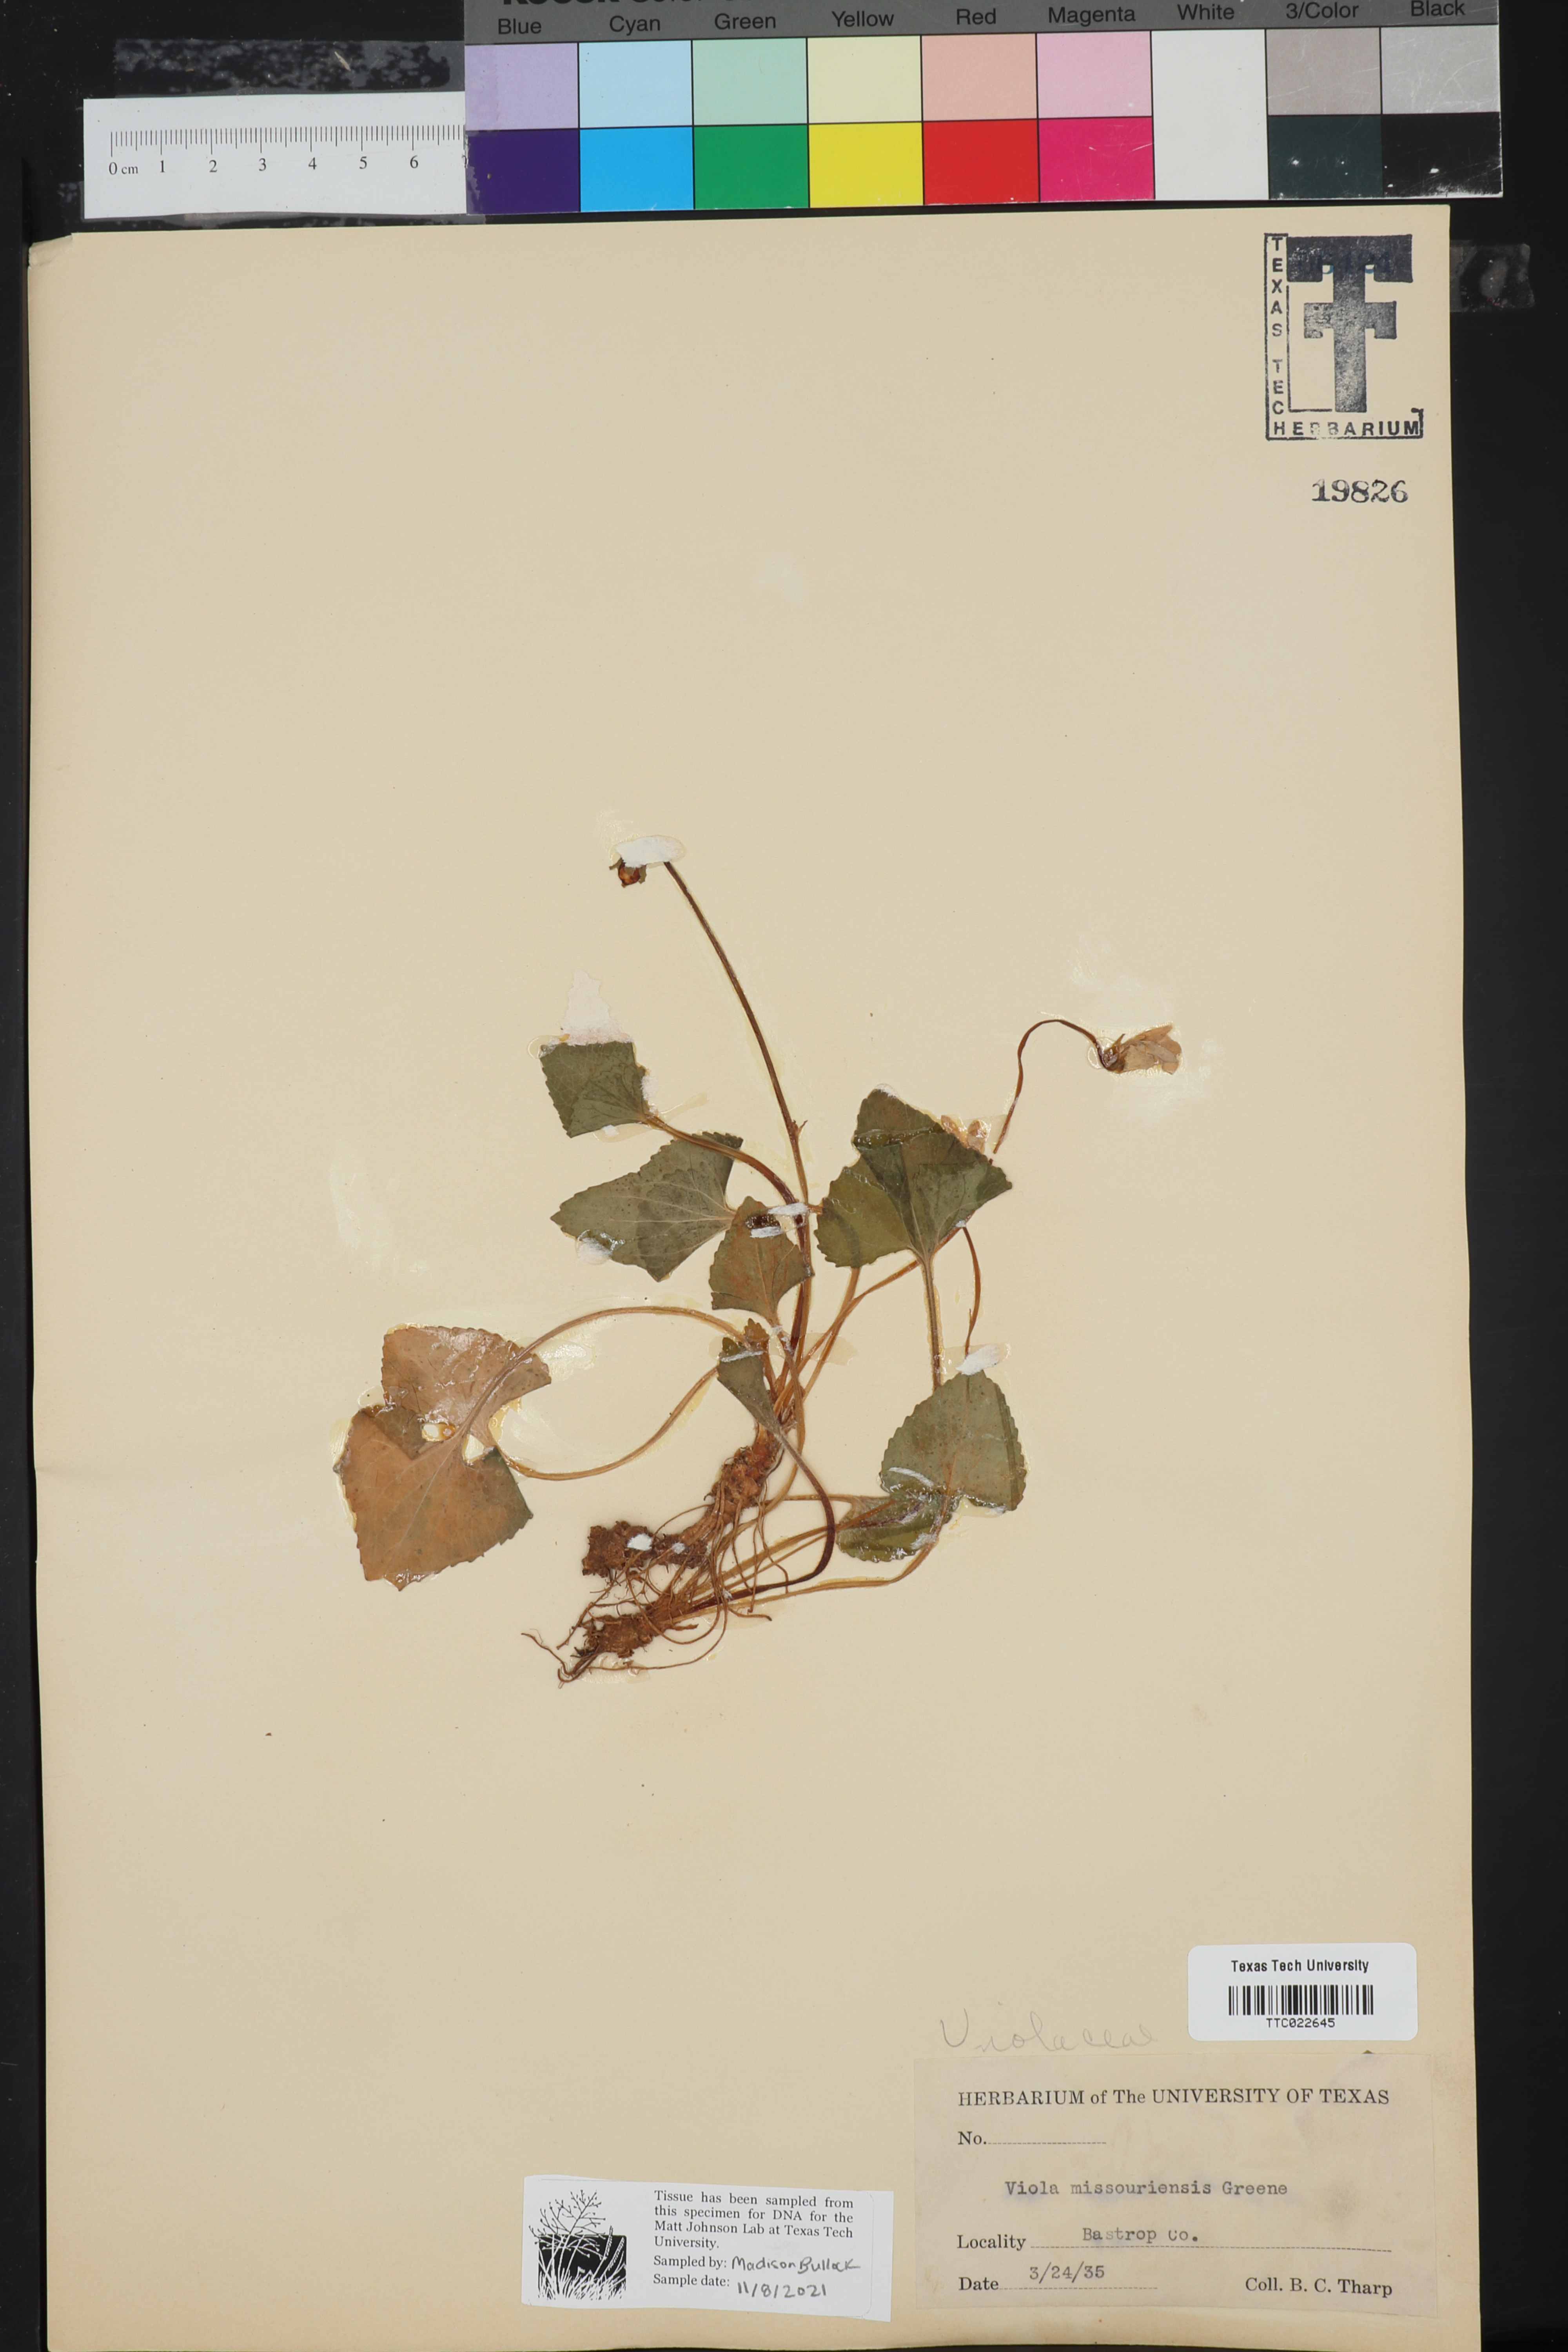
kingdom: Plantae
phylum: Tracheophyta
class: Magnoliopsida
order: Malpighiales
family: Violaceae
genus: Viola
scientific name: Viola missouriensis
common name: Missouri violet
